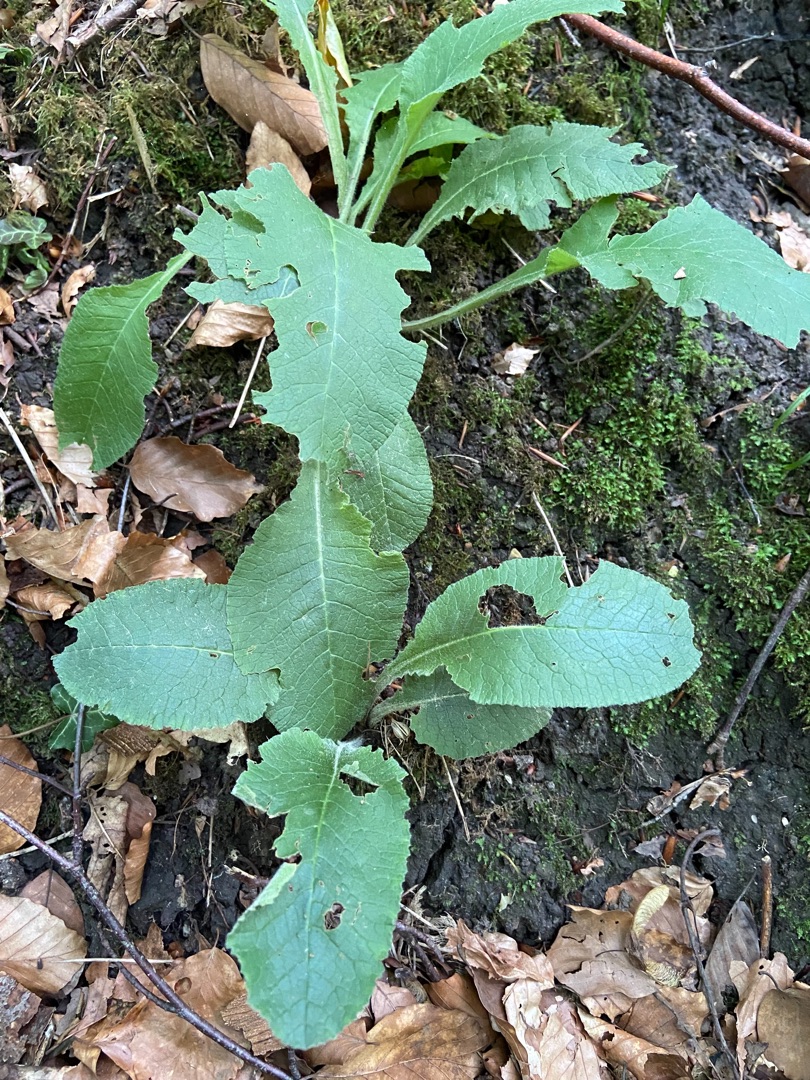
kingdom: Plantae
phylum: Tracheophyta
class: Magnoliopsida
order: Ericales
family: Primulaceae
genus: Primula
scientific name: Primula
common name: Kodriverslægten
